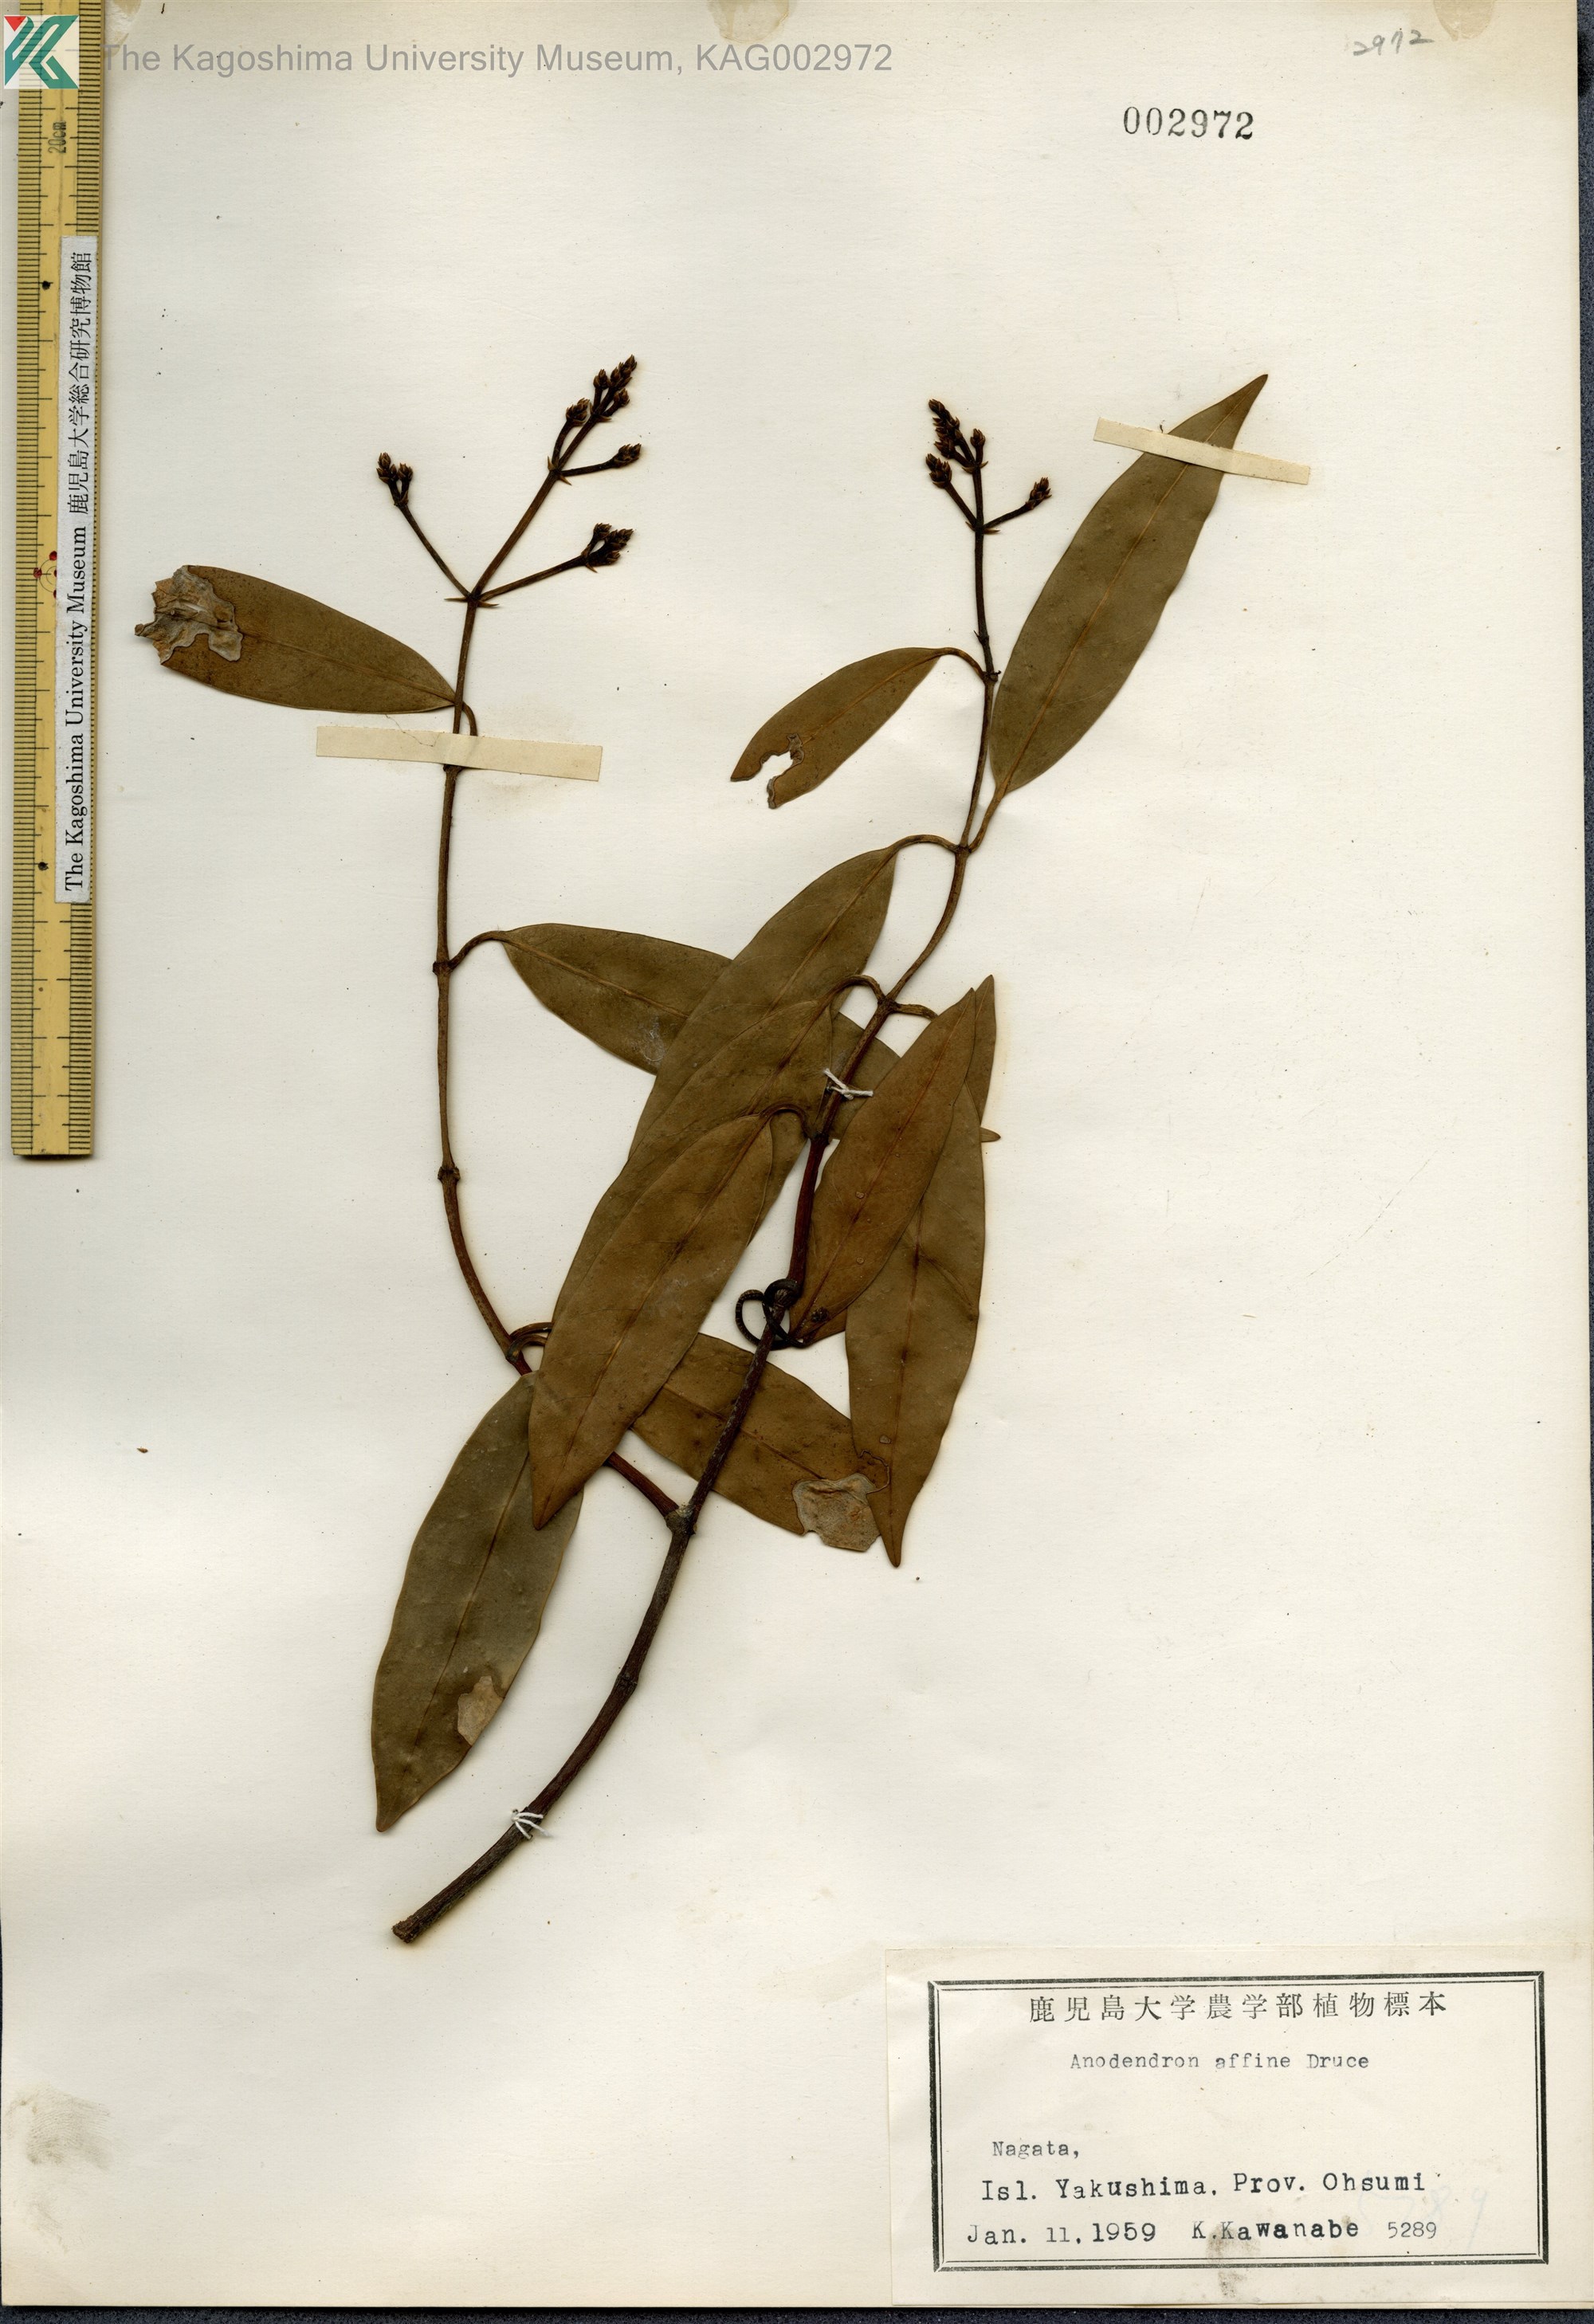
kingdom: Plantae
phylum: Tracheophyta
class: Magnoliopsida
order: Gentianales
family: Apocynaceae
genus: Anodendron
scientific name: Anodendron affine
